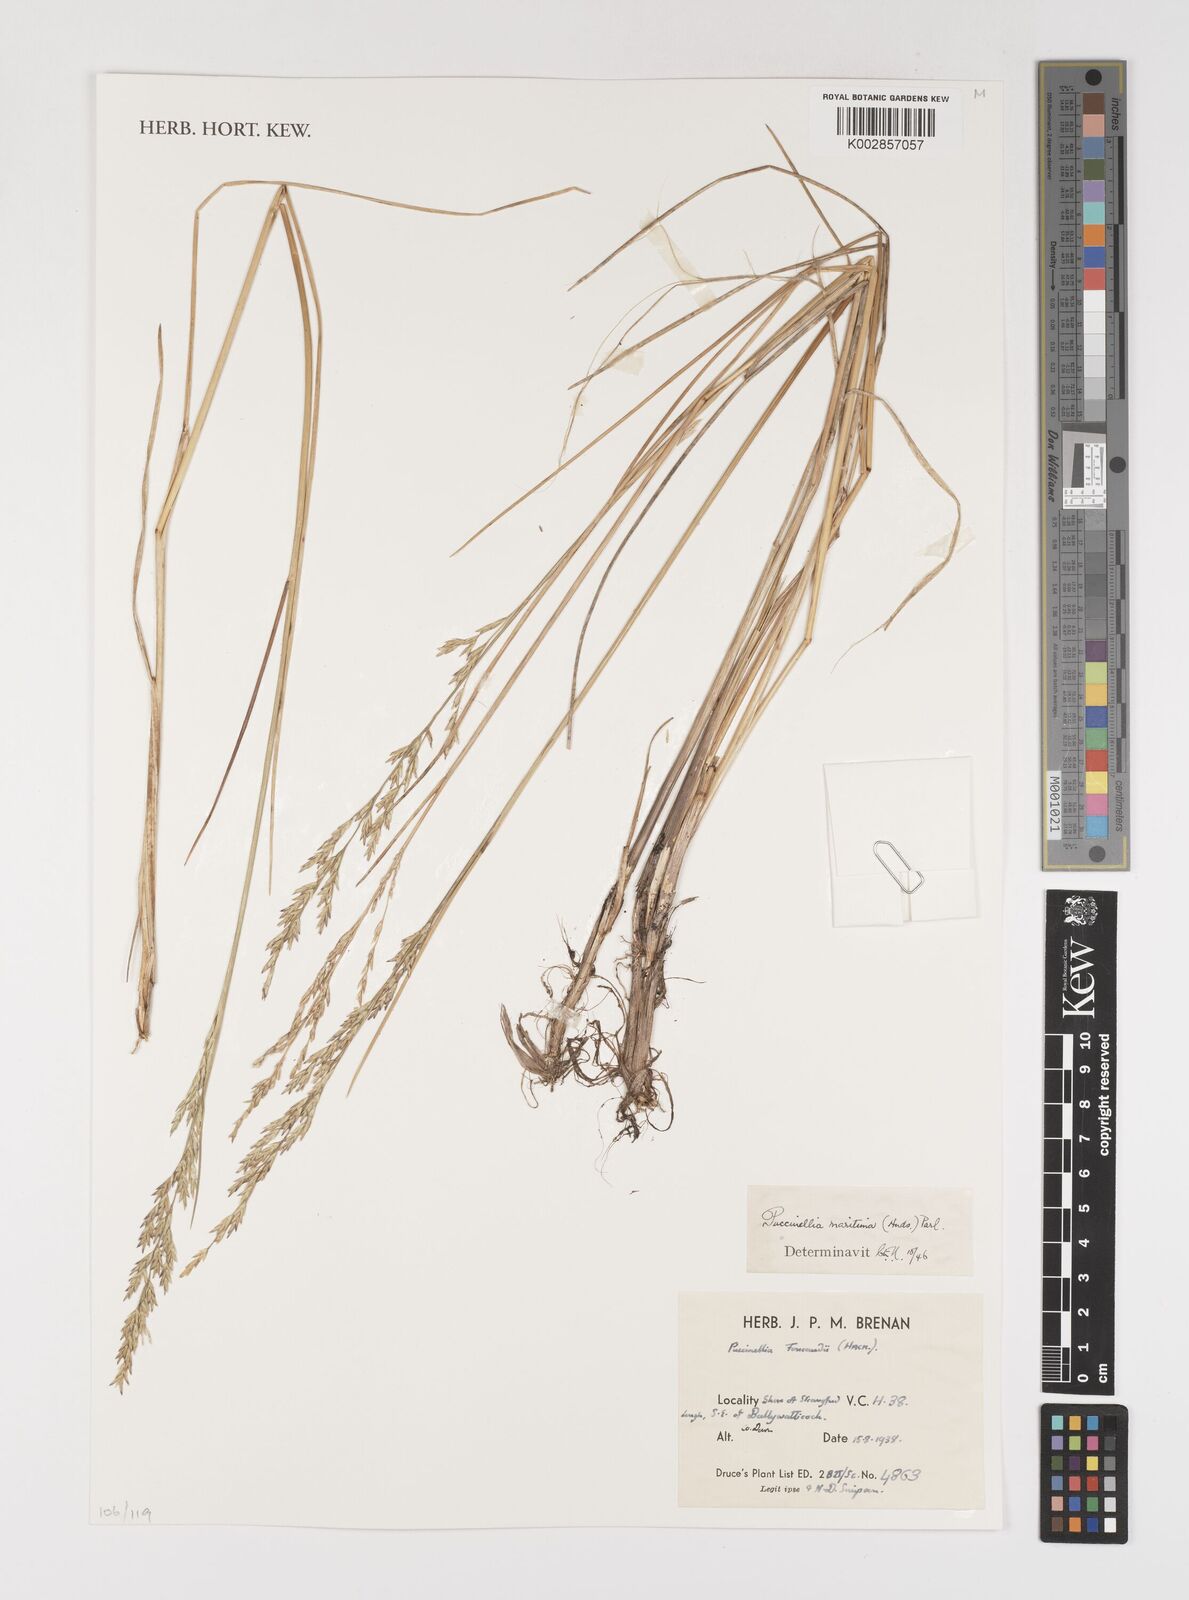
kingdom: Plantae
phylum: Tracheophyta
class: Liliopsida
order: Poales
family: Poaceae
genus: Puccinellia
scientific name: Puccinellia maritima
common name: Common saltmarsh grass
